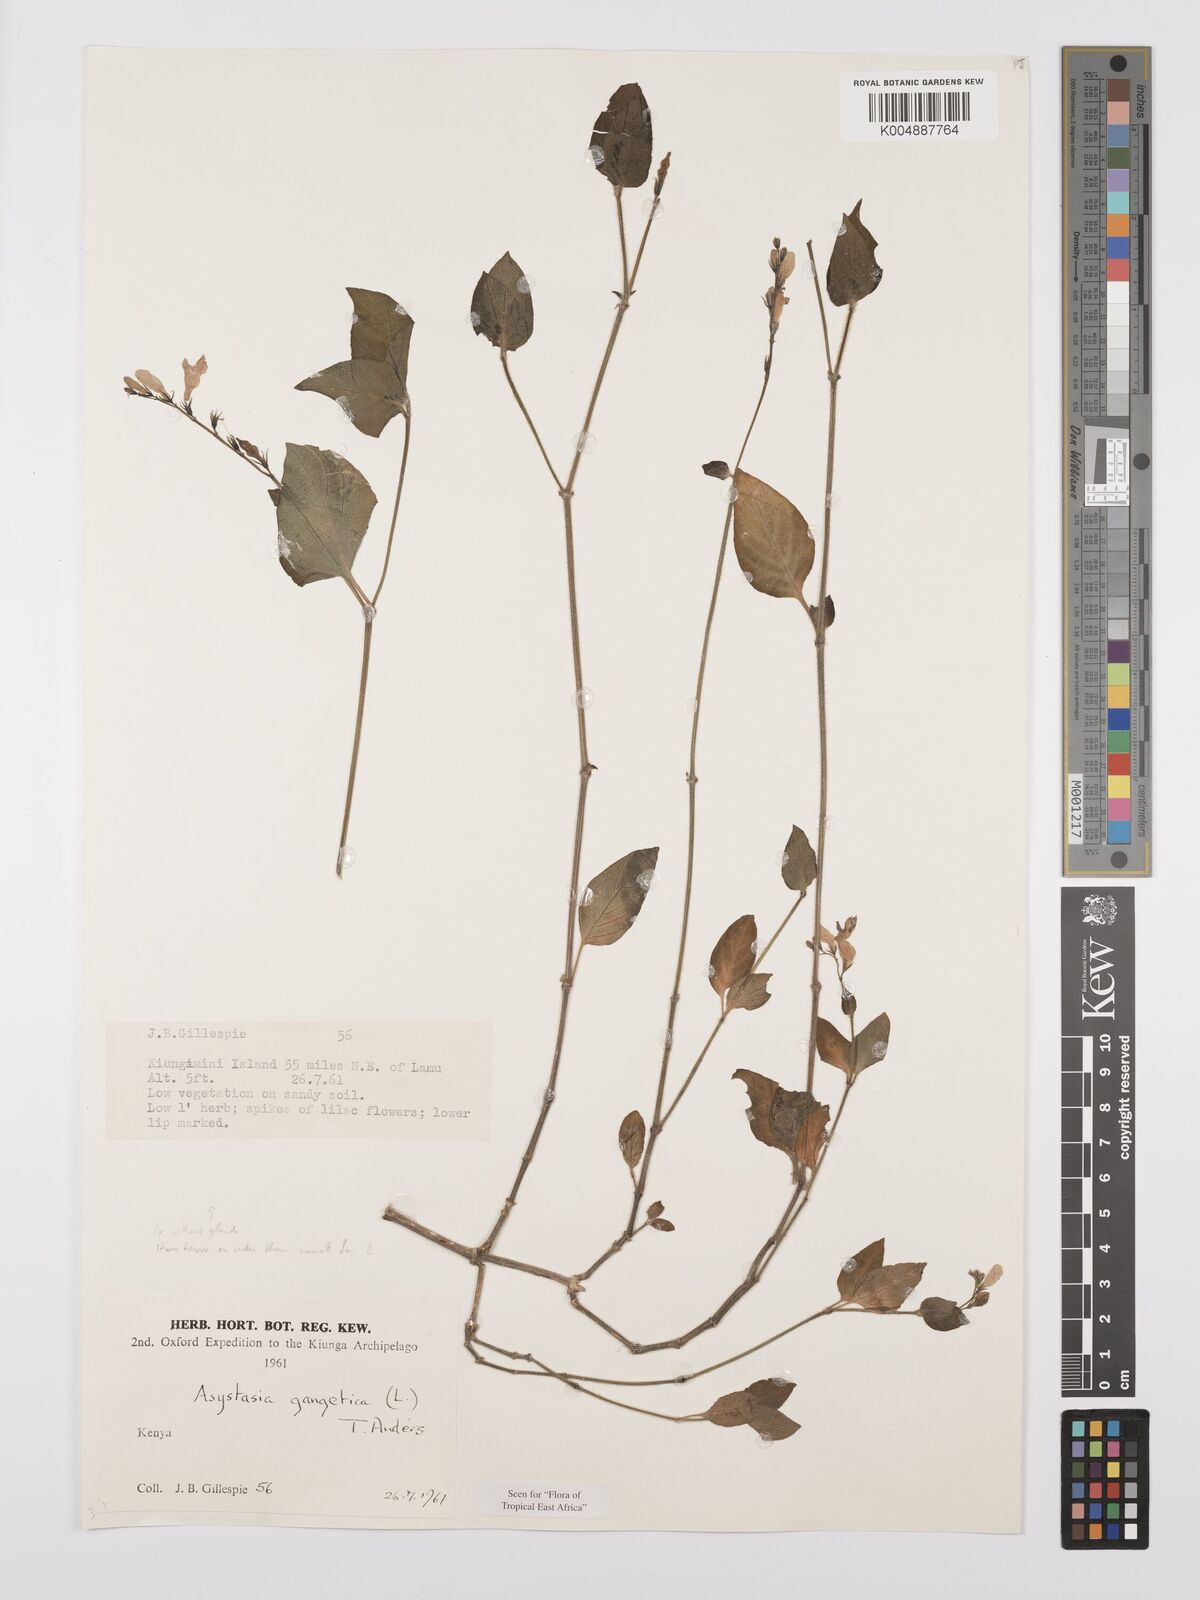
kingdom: Plantae
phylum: Tracheophyta
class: Magnoliopsida
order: Lamiales
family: Acanthaceae
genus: Asystasia
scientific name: Asystasia gangetica
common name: Chinese violet
